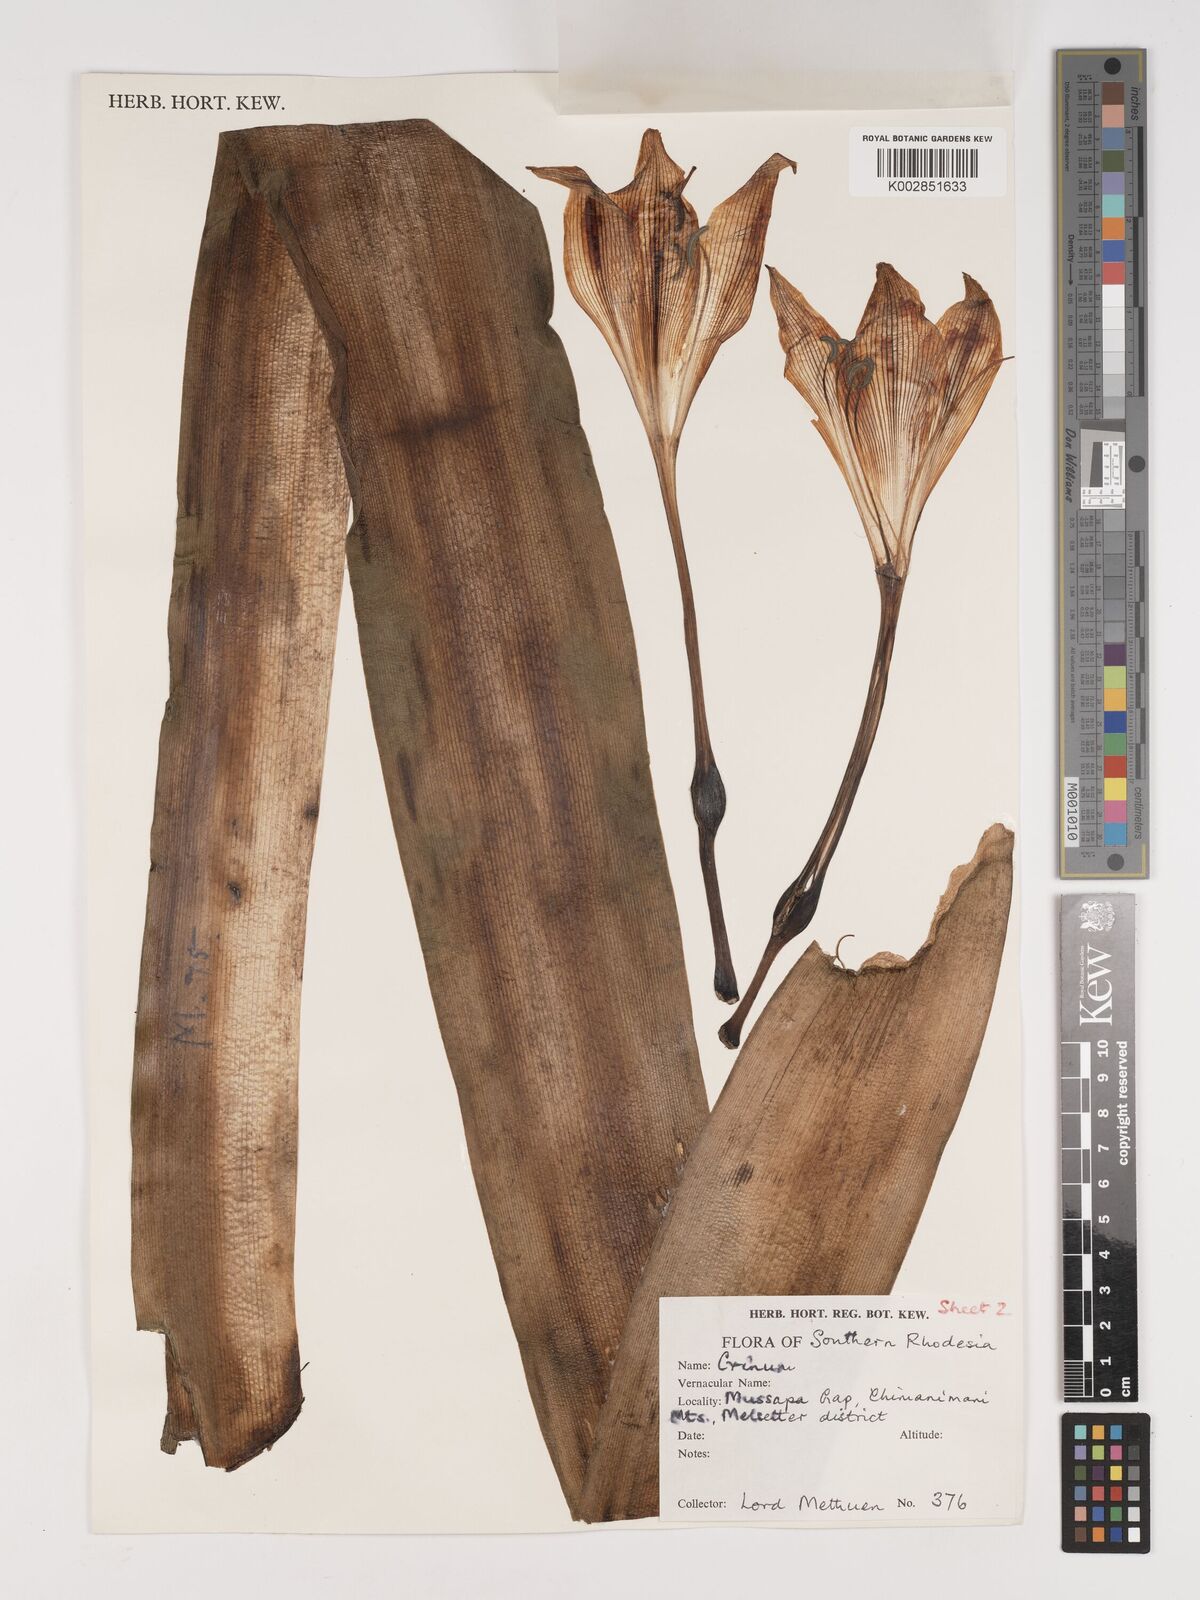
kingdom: Plantae
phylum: Tracheophyta
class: Liliopsida
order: Asparagales
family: Amaryllidaceae
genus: Crinum
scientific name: Crinum macowanii
